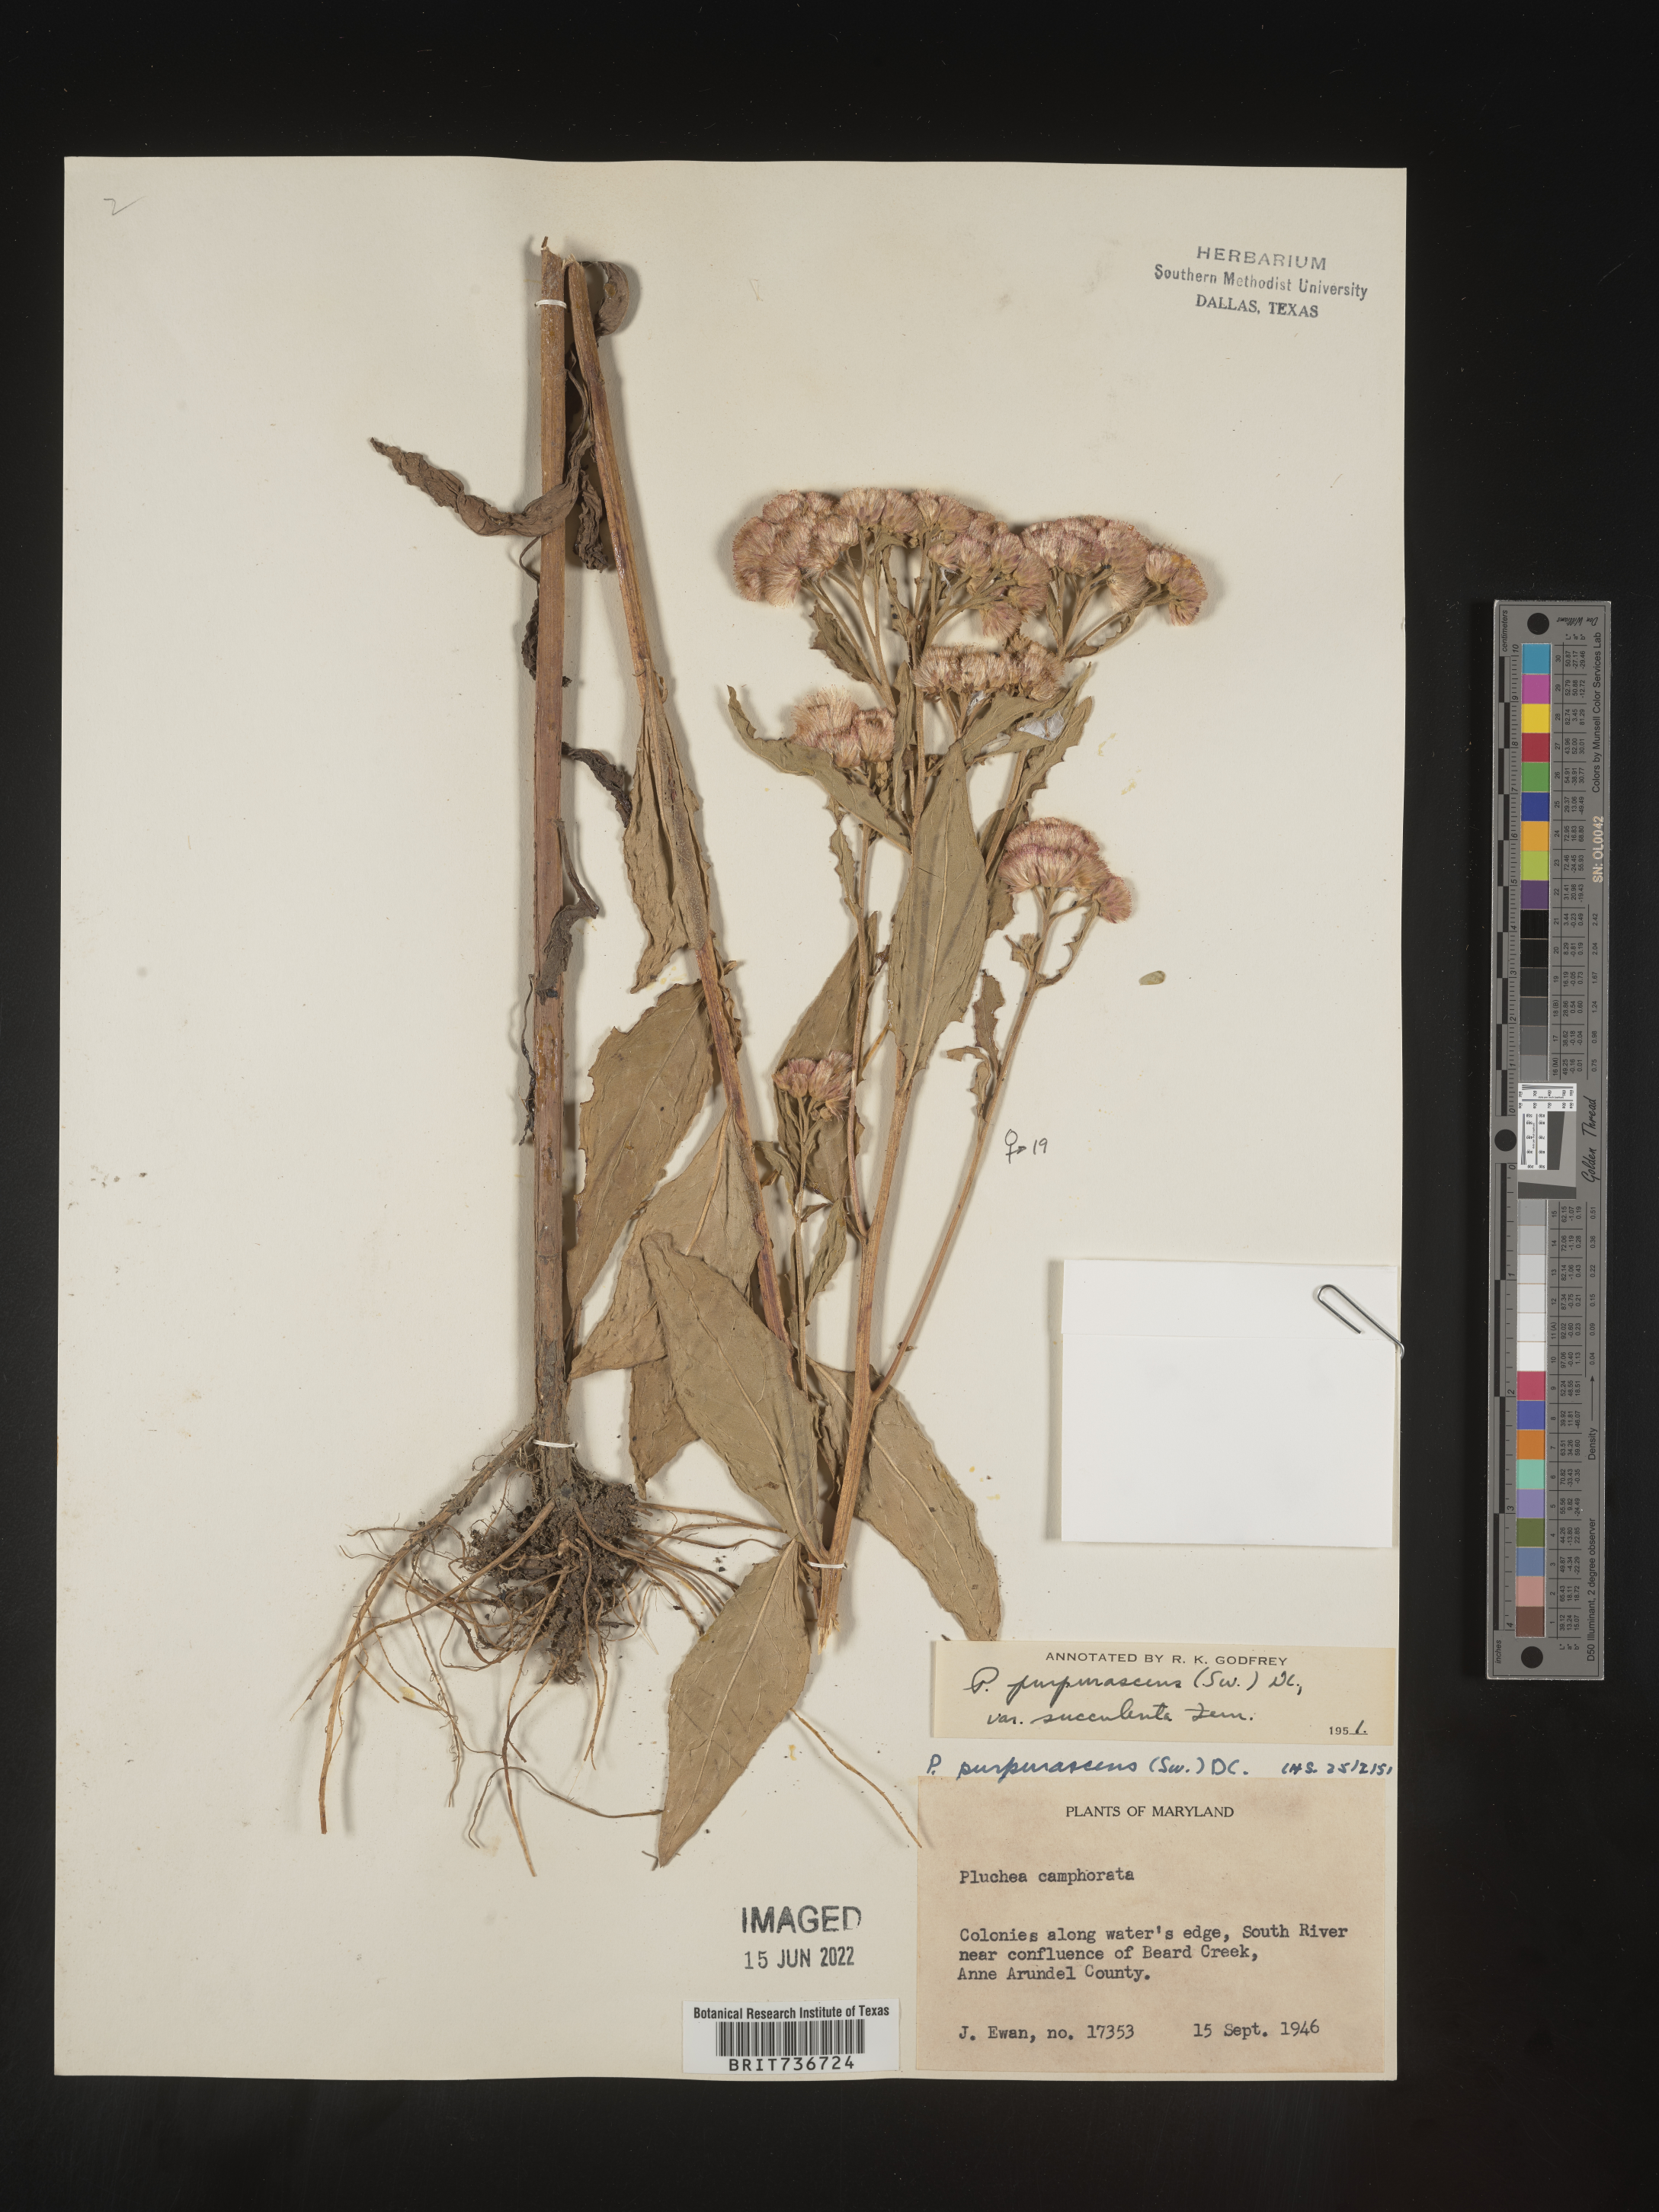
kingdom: Plantae
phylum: Tracheophyta
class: Magnoliopsida
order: Asterales
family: Asteraceae
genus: Pluchea
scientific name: Pluchea odorata
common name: Saltmarsh fleabane
